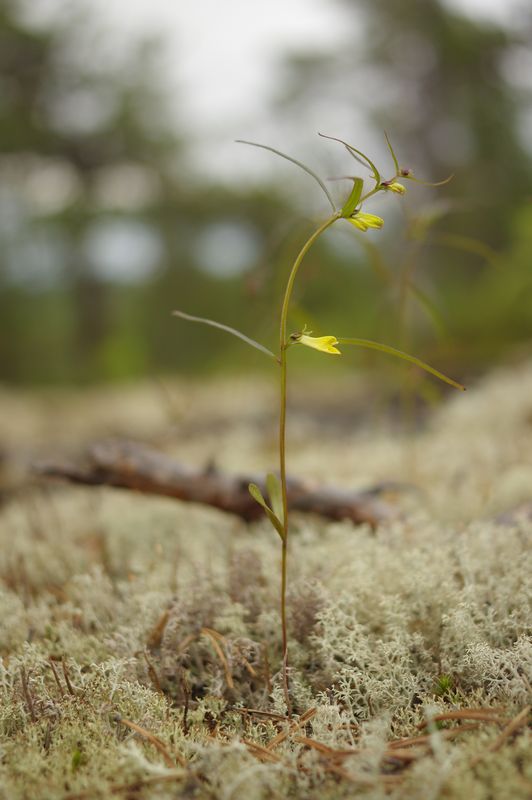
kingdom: Plantae
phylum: Tracheophyta
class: Magnoliopsida
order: Lamiales
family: Orobanchaceae
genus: Melampyrum
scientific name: Melampyrum pratense
